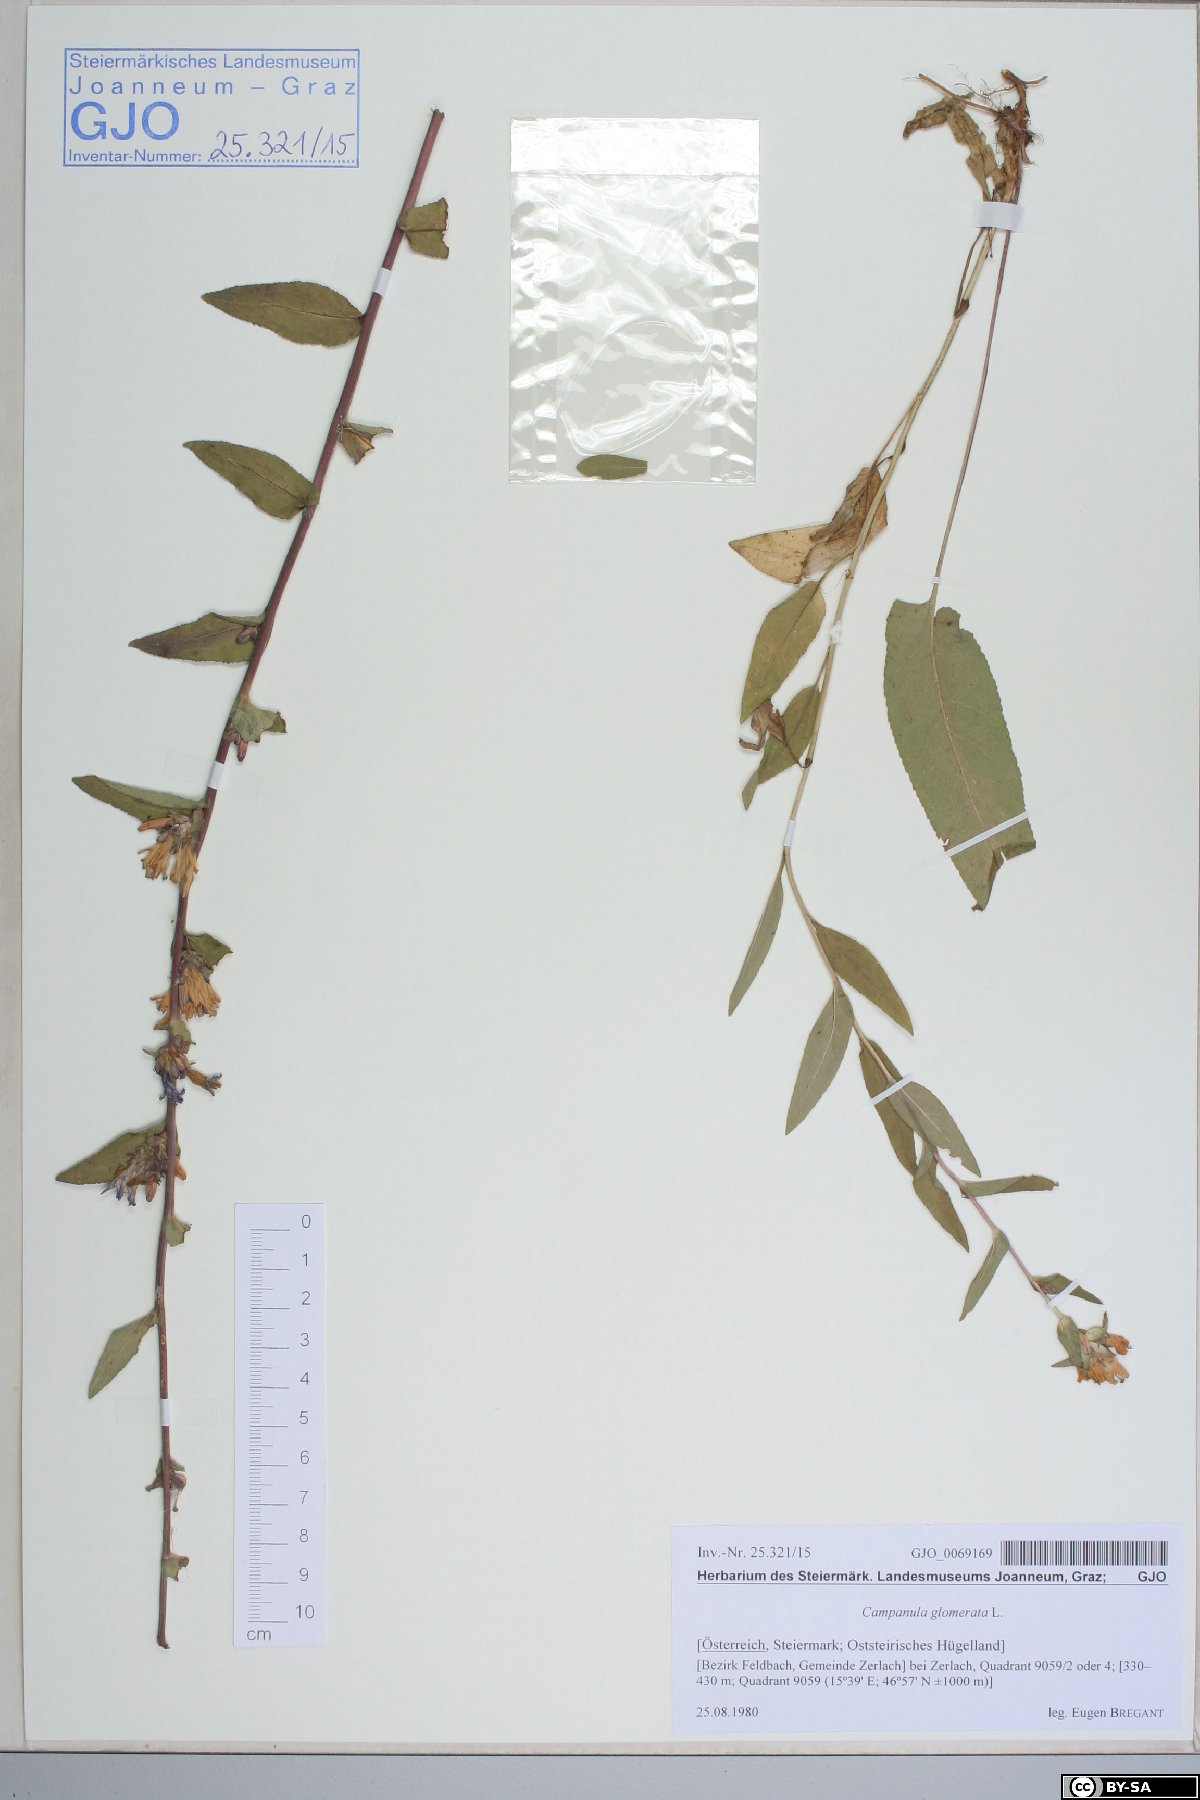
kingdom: Plantae
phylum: Tracheophyta
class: Magnoliopsida
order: Asterales
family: Campanulaceae
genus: Campanula
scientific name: Campanula glomerata
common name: Clustered bellflower
